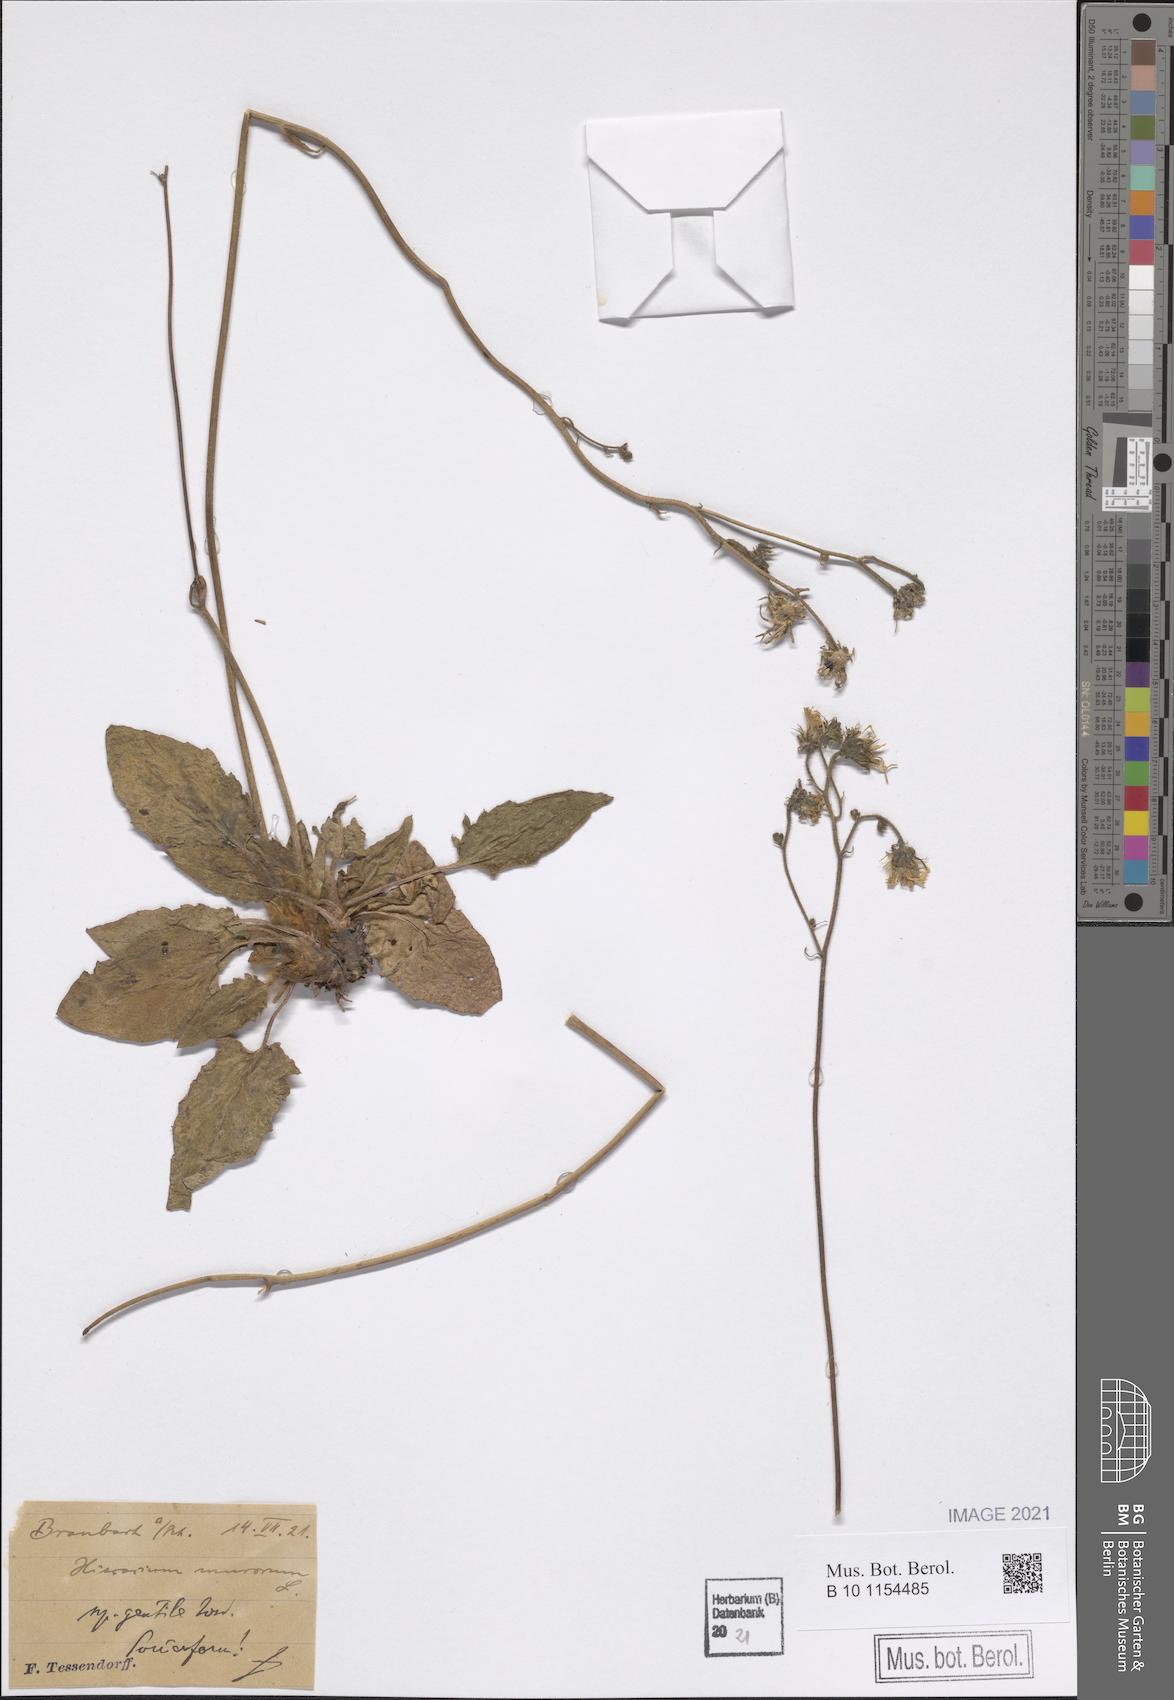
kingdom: Plantae
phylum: Tracheophyta
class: Magnoliopsida
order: Asterales
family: Asteraceae
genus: Hieracium
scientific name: Hieracium murorum
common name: Wall hawkweed
